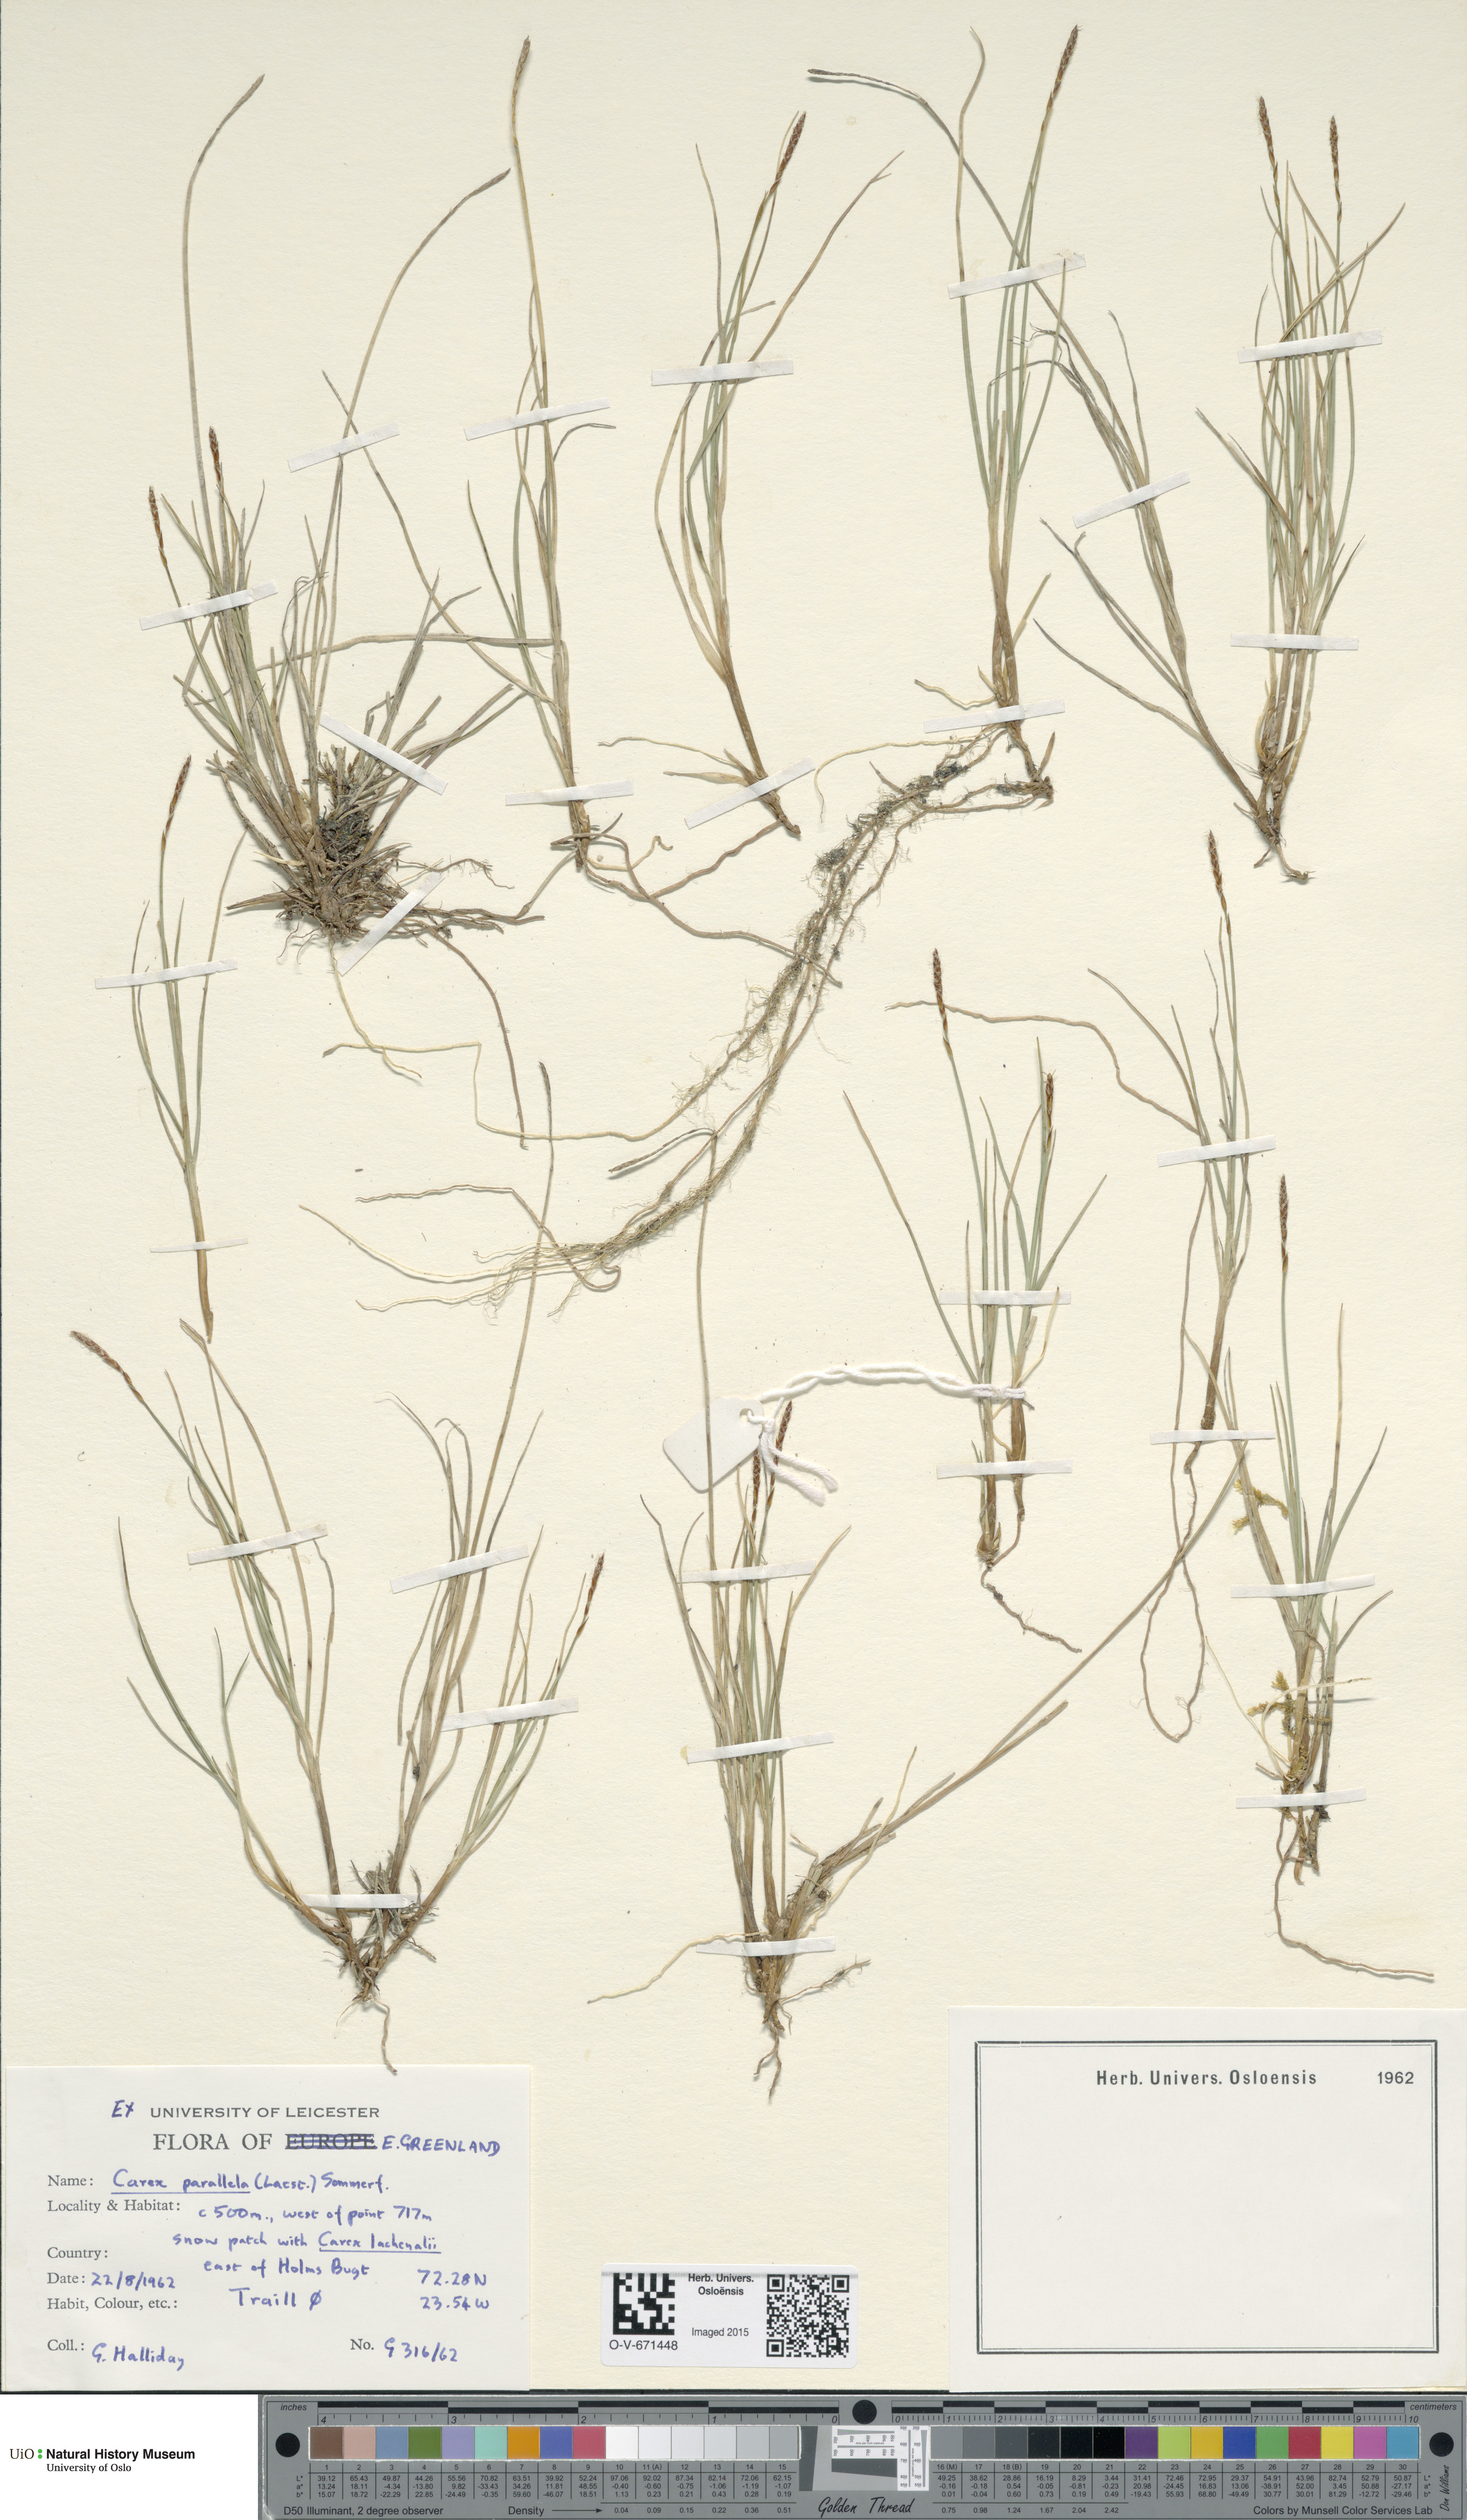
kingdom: Plantae
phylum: Tracheophyta
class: Liliopsida
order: Poales
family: Cyperaceae
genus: Carex
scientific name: Carex parallela
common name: Parallel sedge
